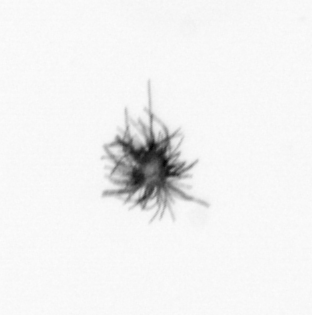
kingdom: Bacteria
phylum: Cyanobacteria
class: Cyanobacteriia
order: Cyanobacteriales
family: Microcoleaceae
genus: Trichodesmium
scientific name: Trichodesmium
